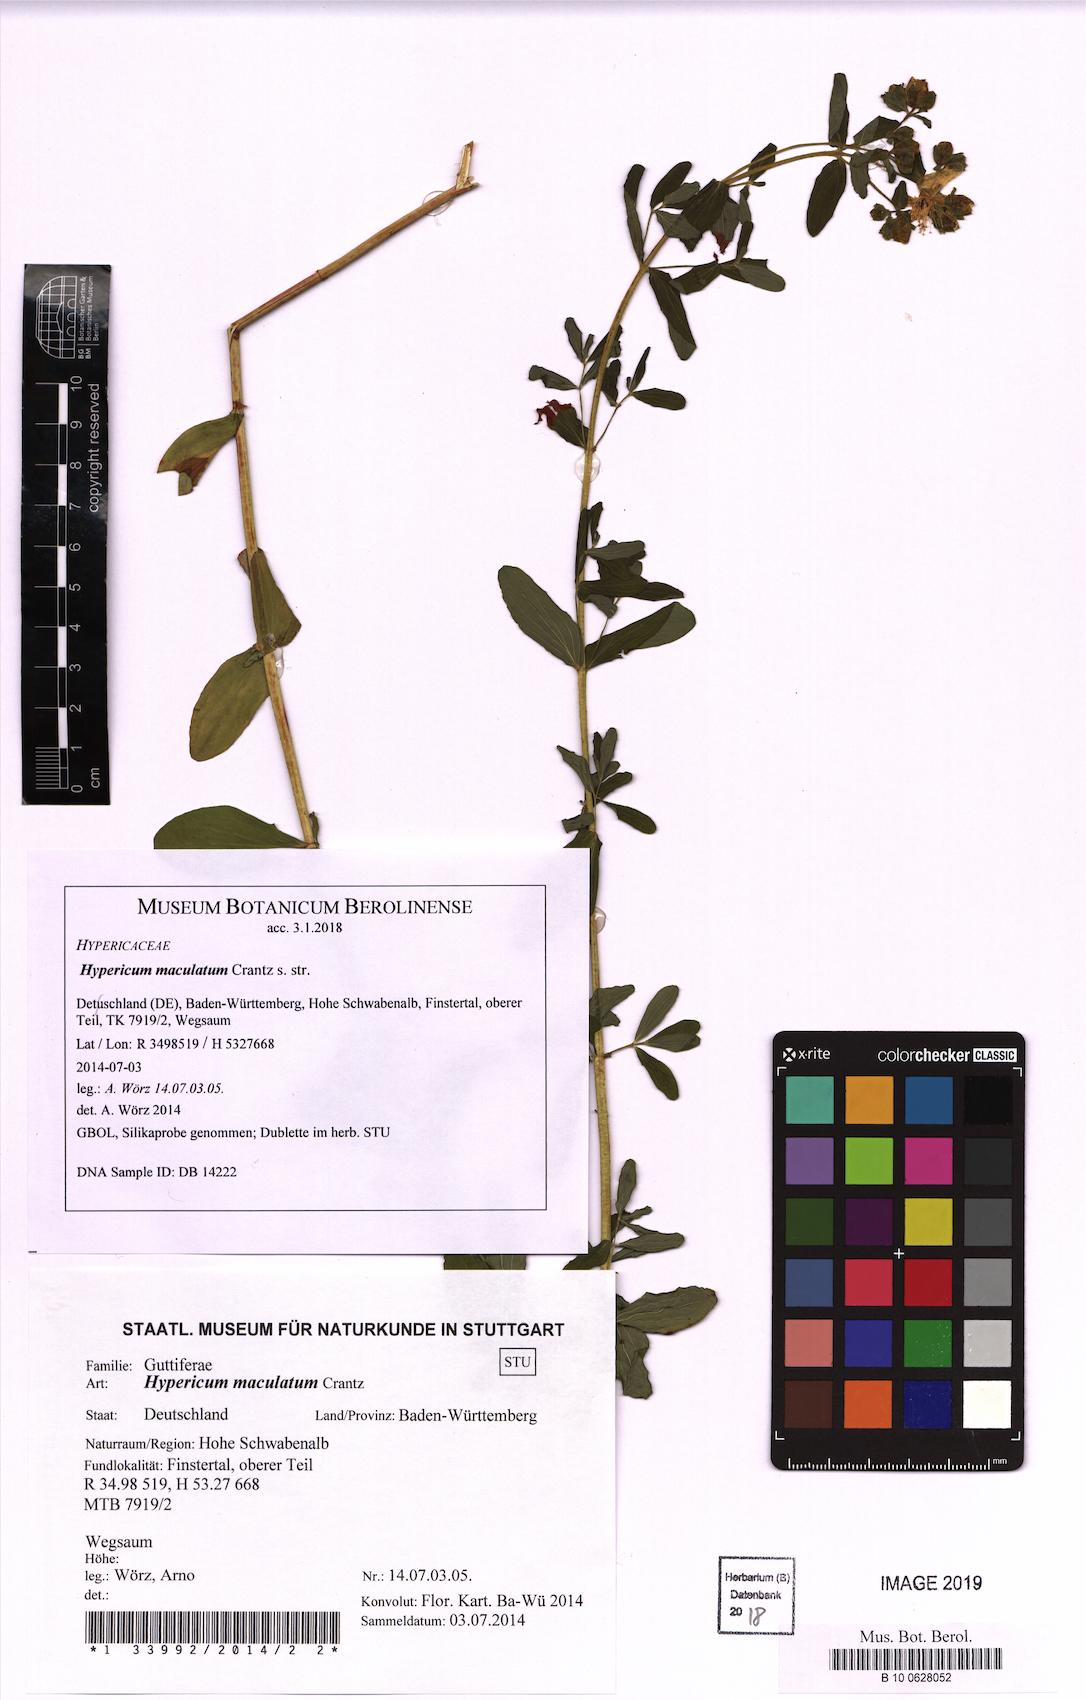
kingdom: Plantae
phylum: Tracheophyta
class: Magnoliopsida
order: Malpighiales
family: Hypericaceae
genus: Hypericum
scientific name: Hypericum maculatum
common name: Imperforate st. john's-wort
